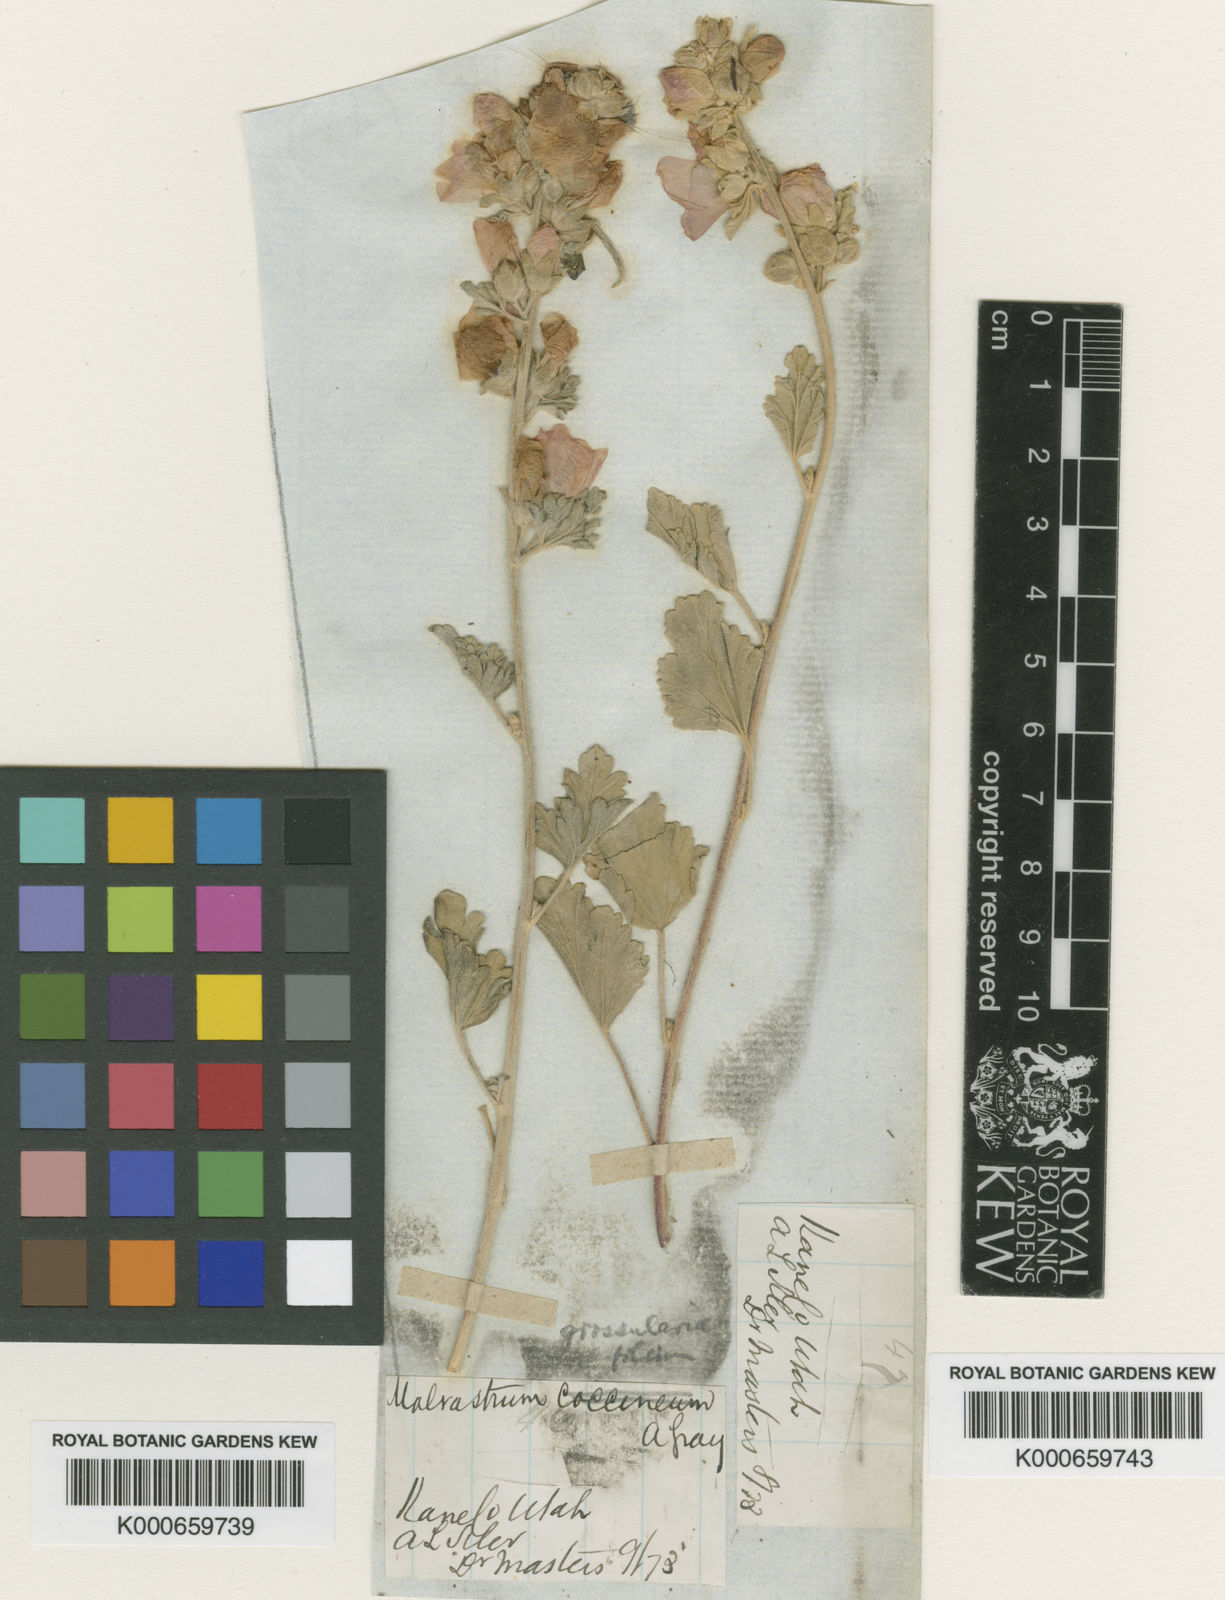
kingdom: Plantae
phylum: Tracheophyta
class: Magnoliopsida
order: Malvales
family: Malvaceae
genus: Sphaeralcea
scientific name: Sphaeralcea grossulariifolia
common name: Current-leaf globe-mallow
